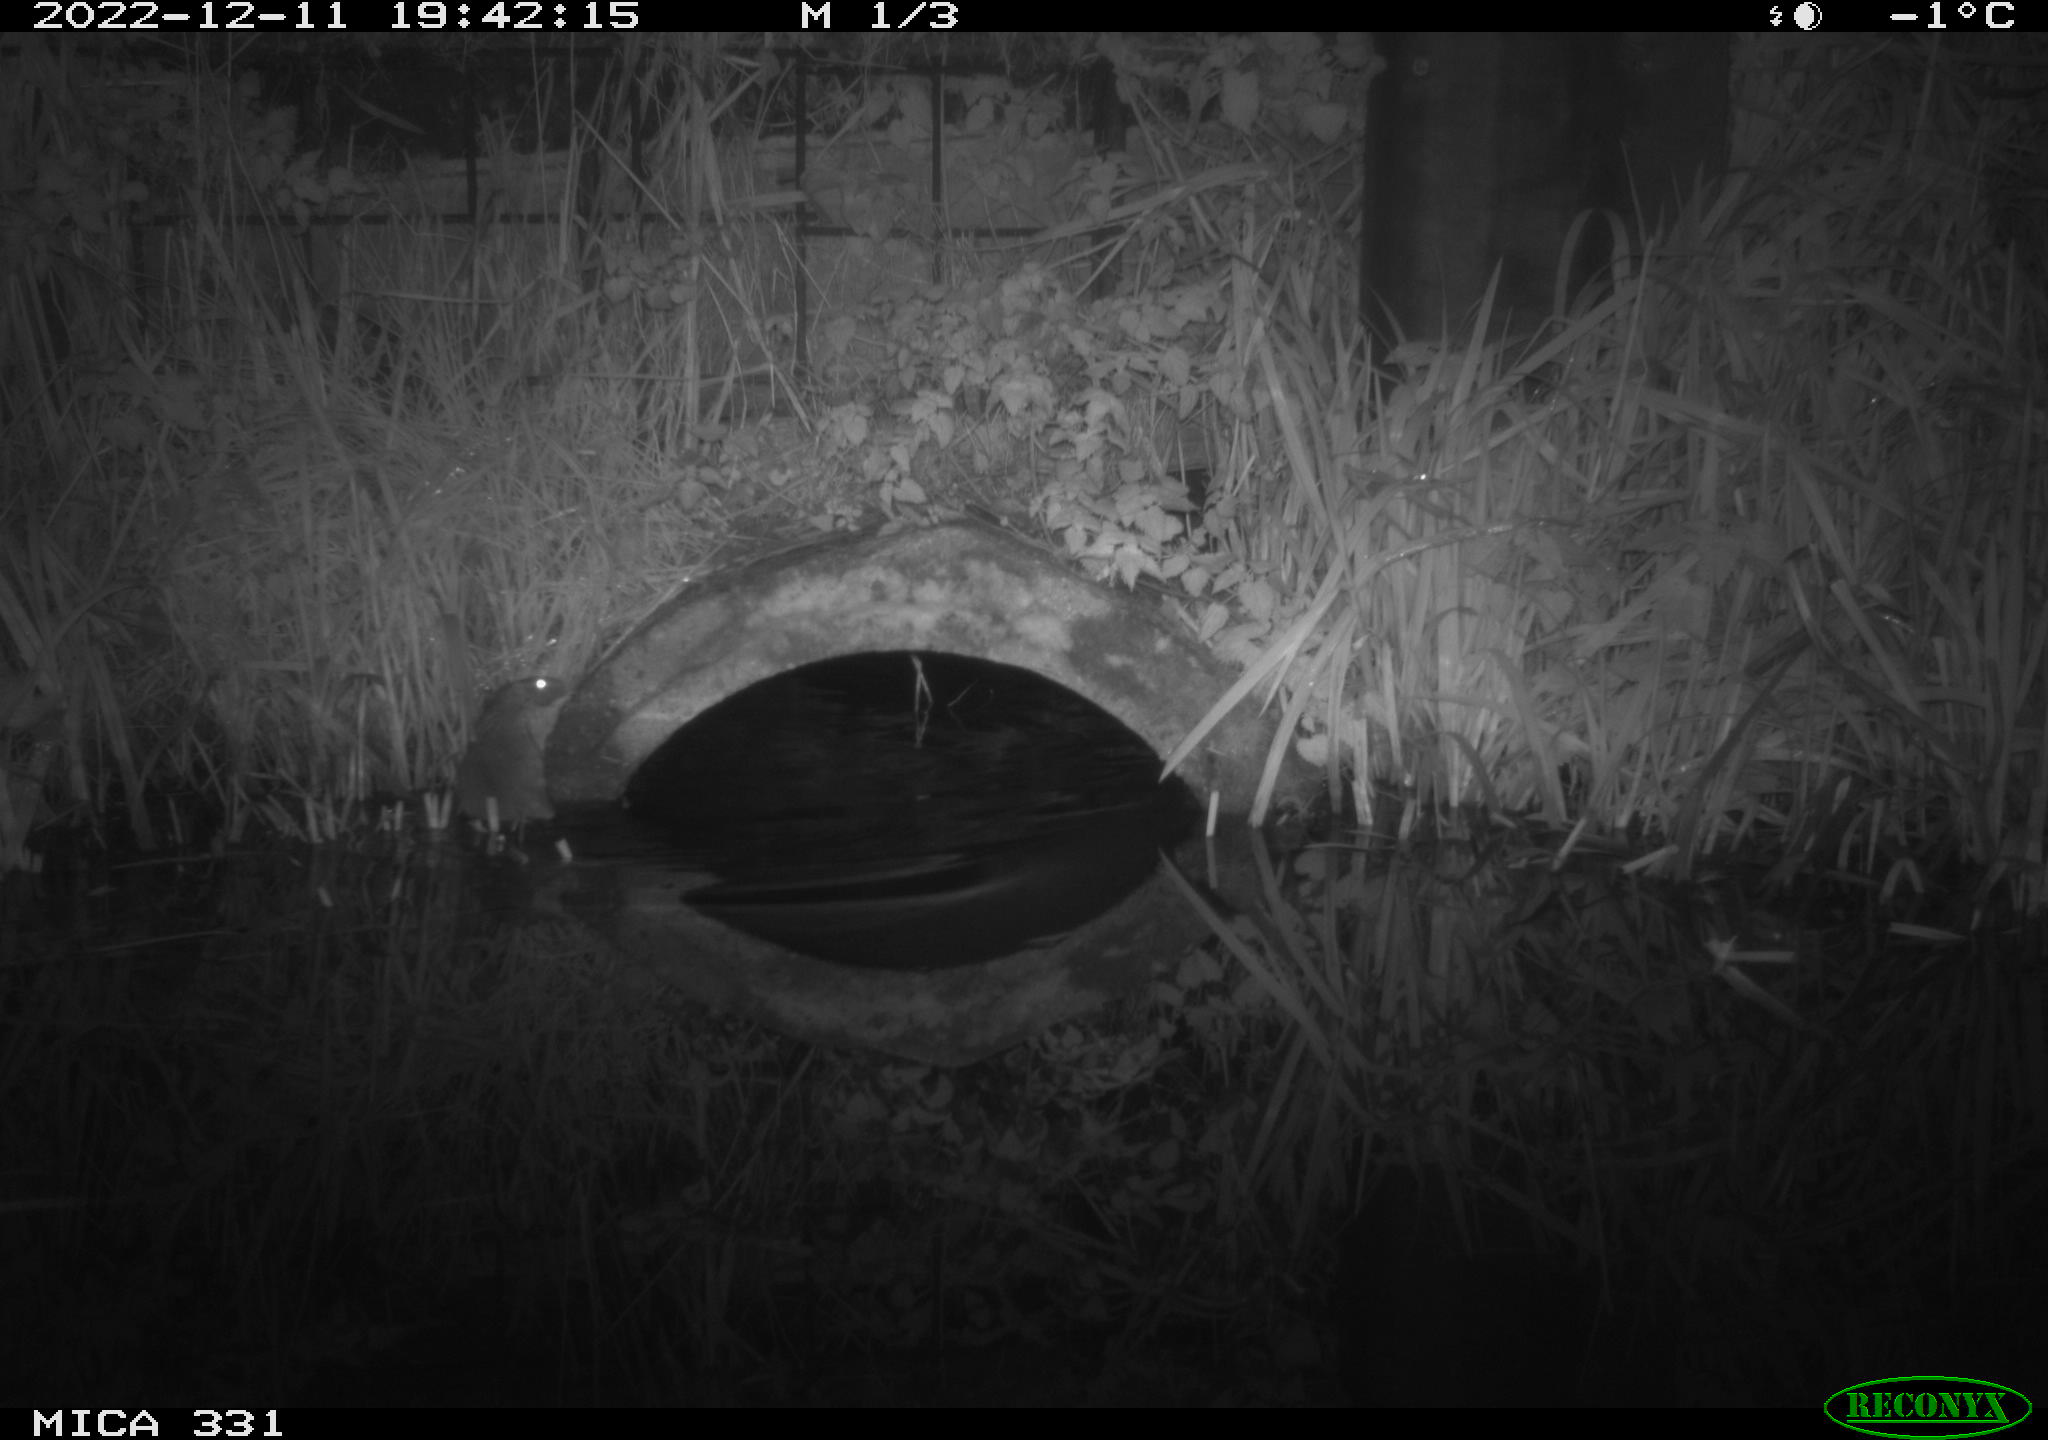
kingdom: Animalia
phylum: Chordata
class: Mammalia
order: Rodentia
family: Muridae
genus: Rattus
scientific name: Rattus norvegicus
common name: Brown rat
